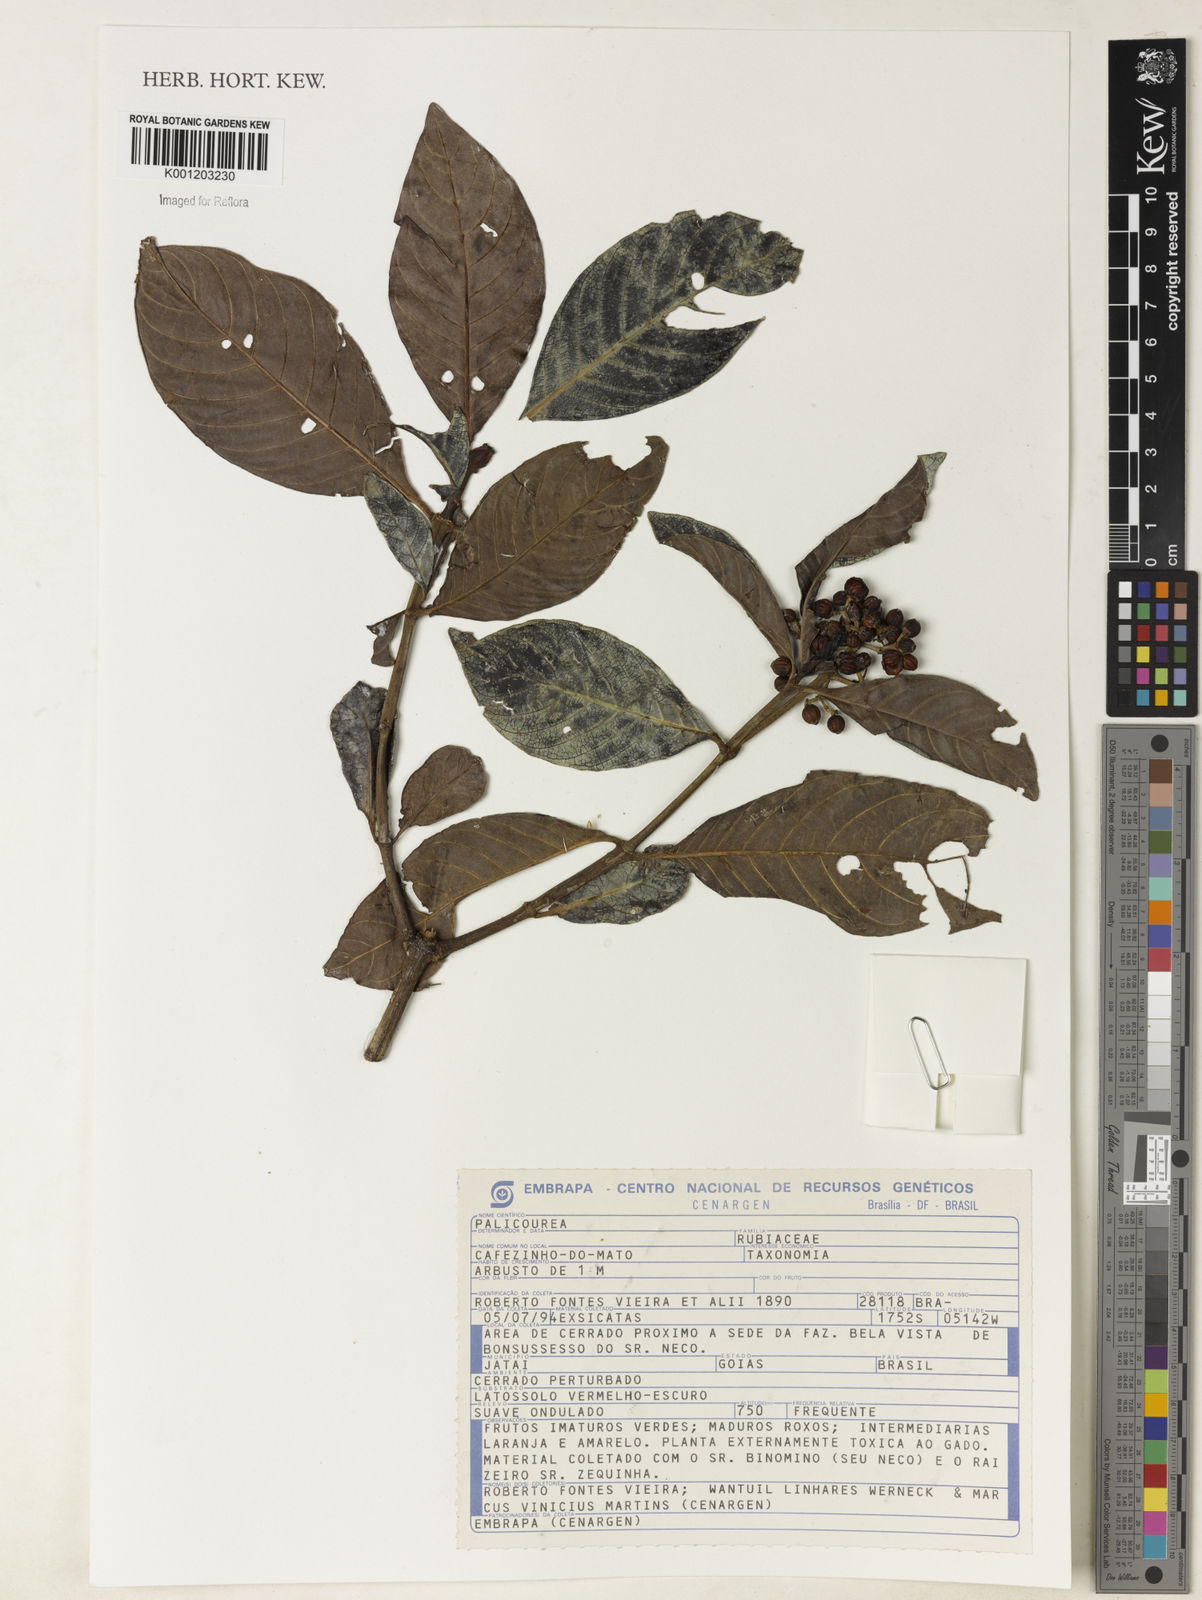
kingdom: Plantae
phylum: Tracheophyta
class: Magnoliopsida
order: Gentianales
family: Rubiaceae
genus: Palicourea
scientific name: Palicourea
